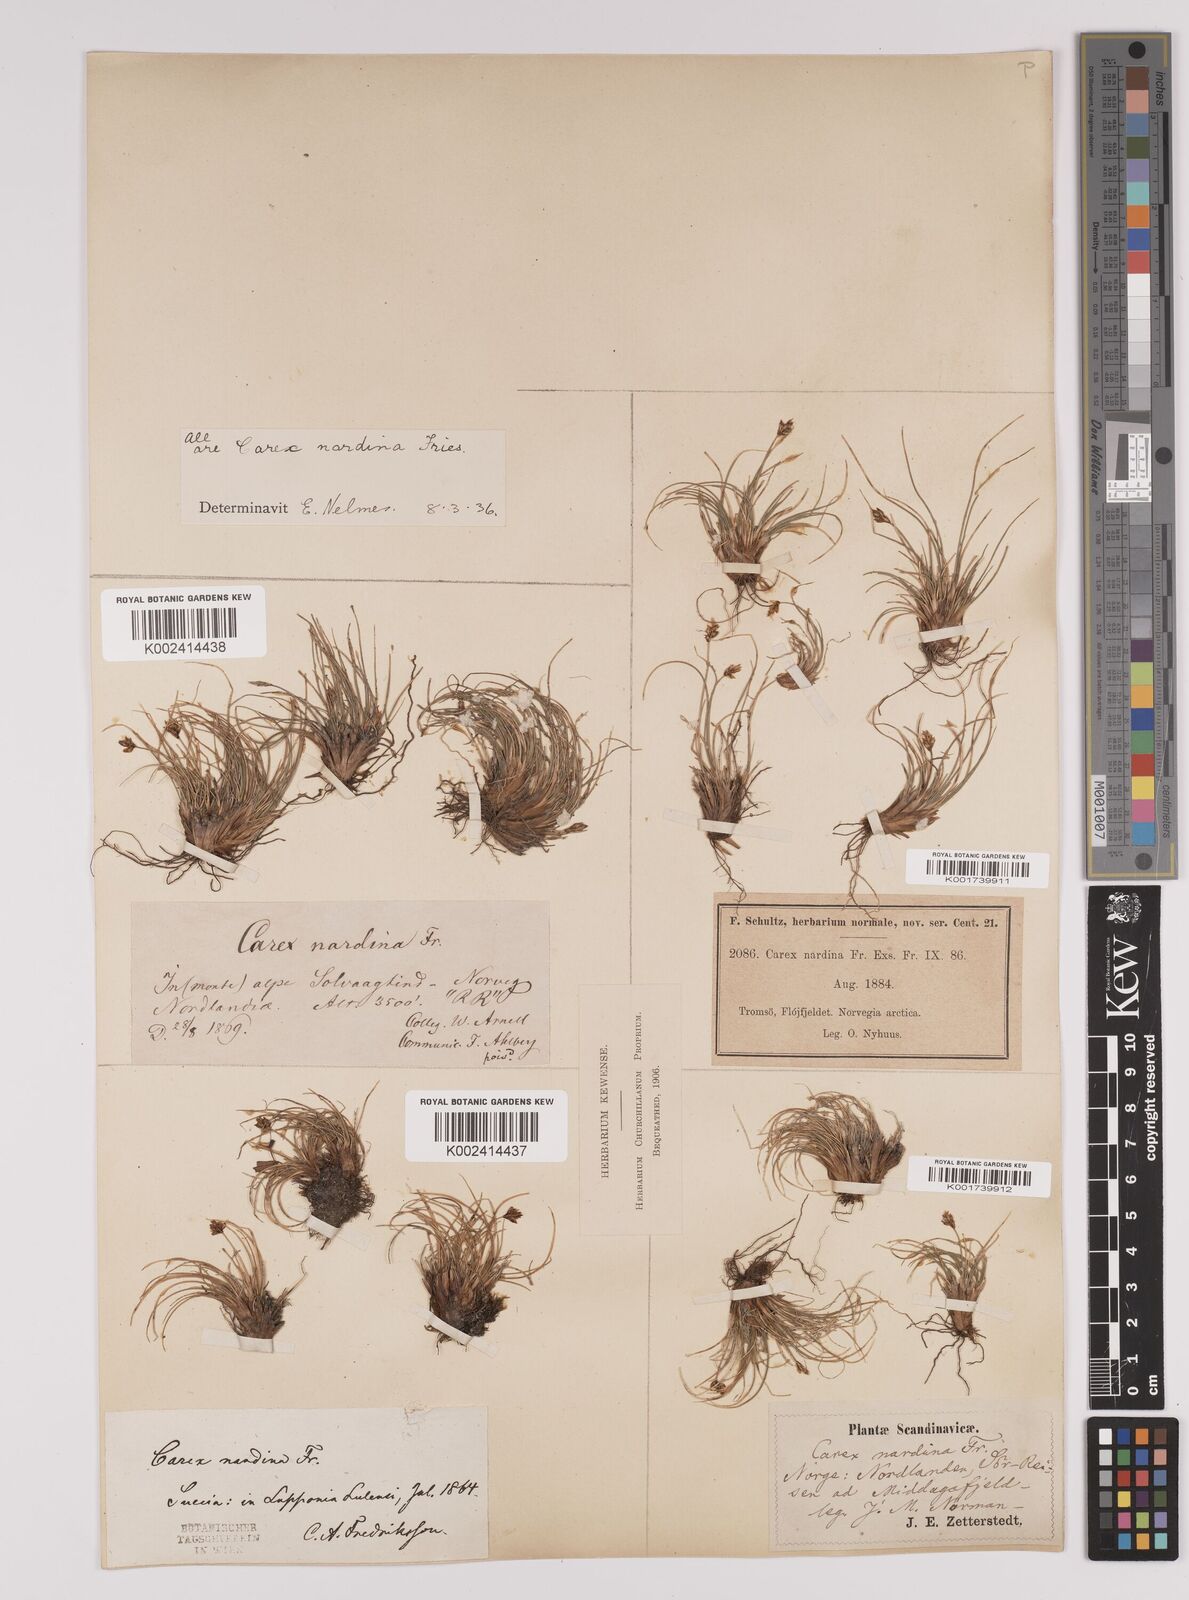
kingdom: Plantae
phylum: Tracheophyta
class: Liliopsida
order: Poales
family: Cyperaceae
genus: Carex
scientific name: Carex nardina
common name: Nard sedge
